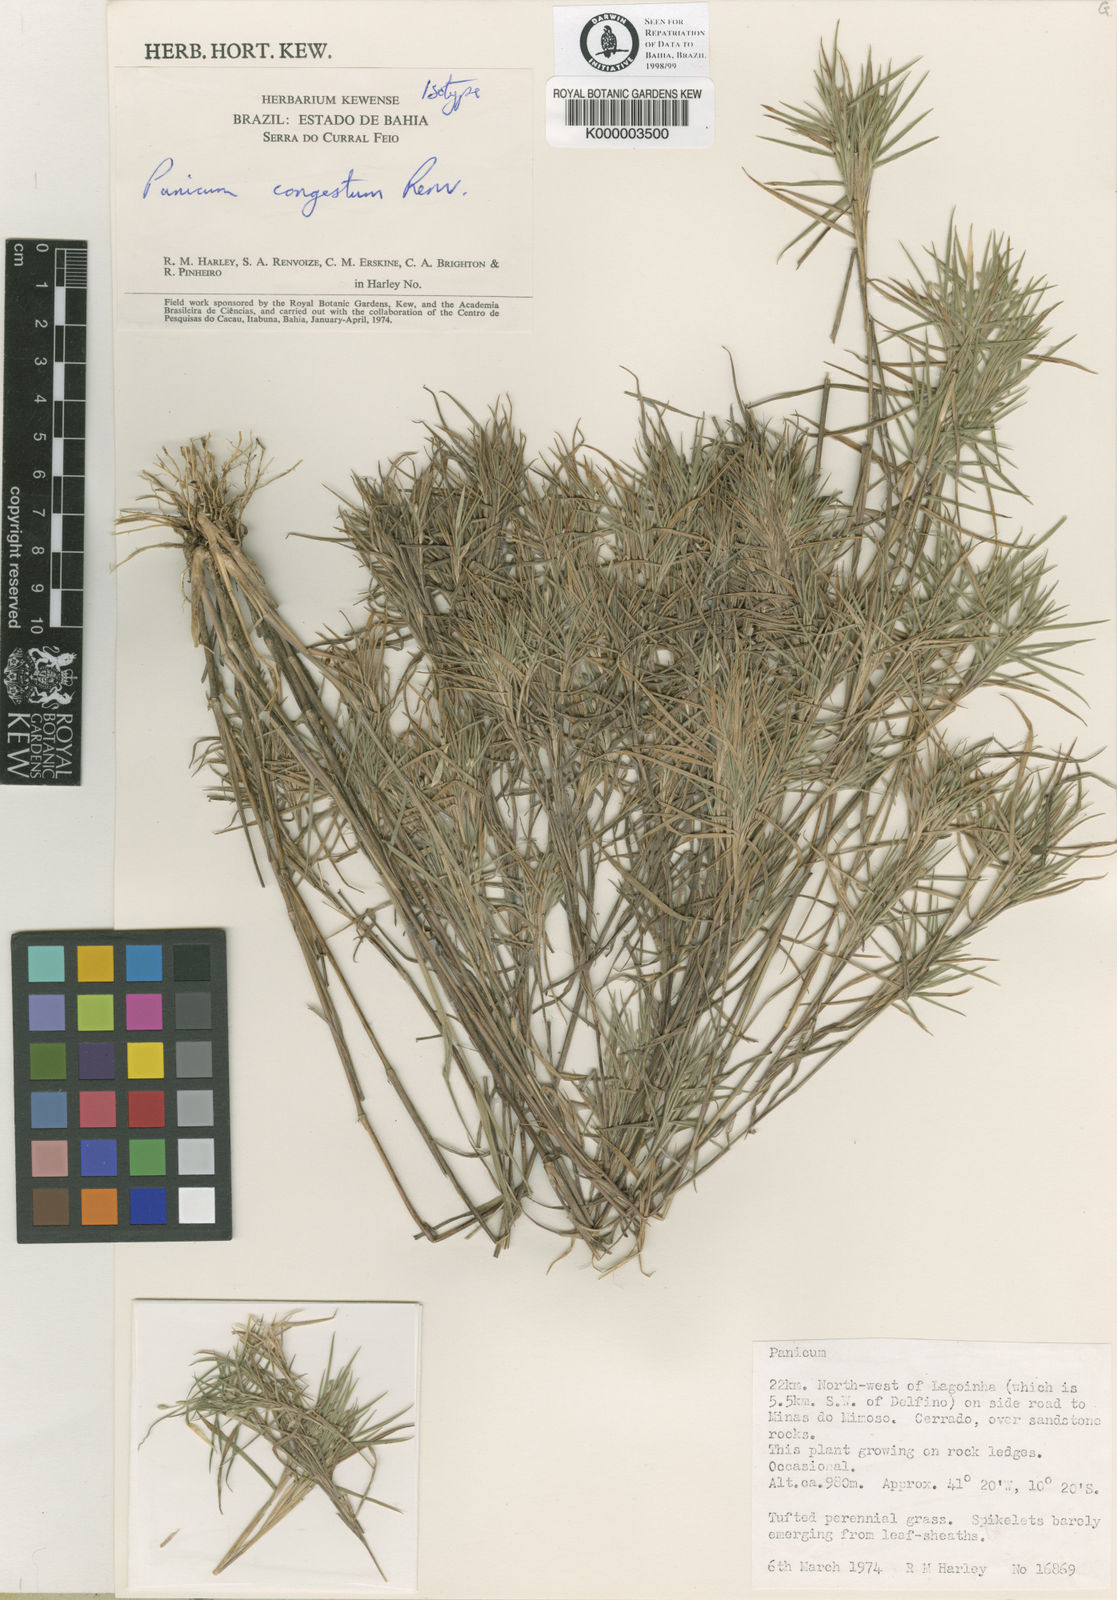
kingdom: Plantae
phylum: Tracheophyta
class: Liliopsida
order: Poales
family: Poaceae
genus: Dichanthelium
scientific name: Dichanthelium congestum
